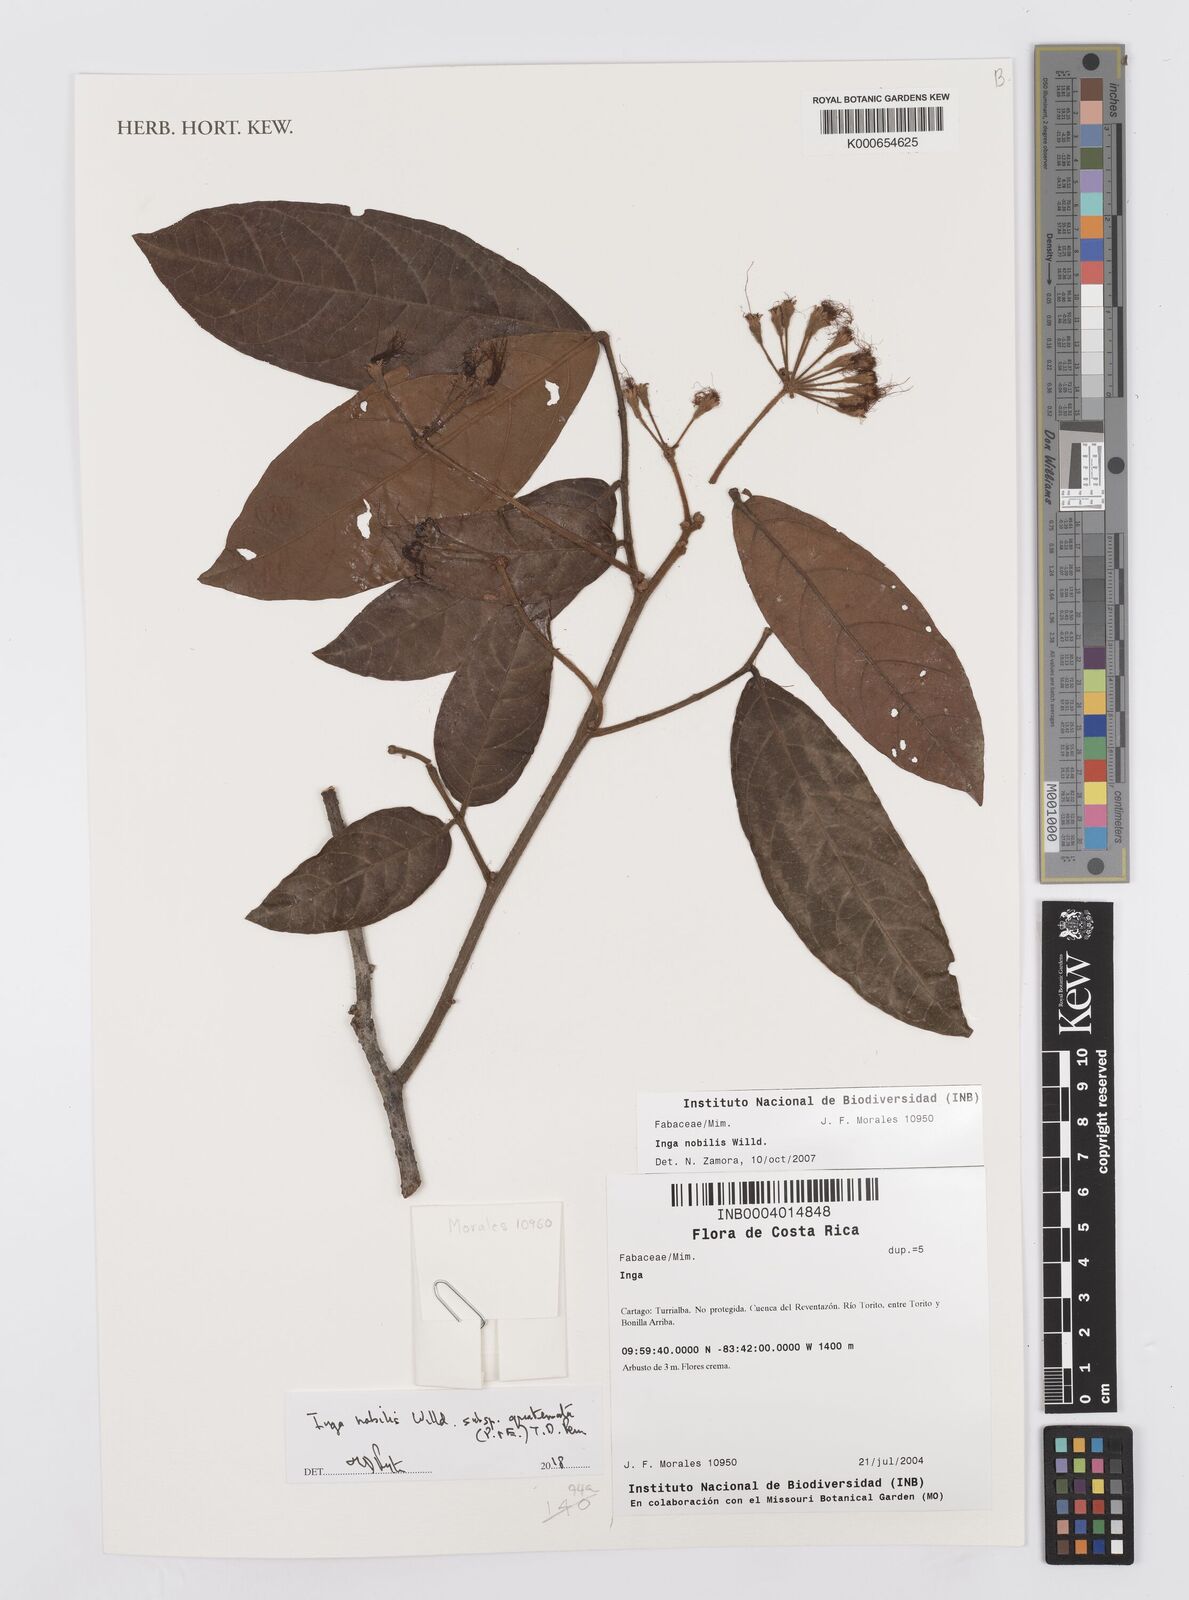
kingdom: Plantae
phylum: Tracheophyta
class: Magnoliopsida
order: Fabales
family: Fabaceae
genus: Inga
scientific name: Inga nobilis
